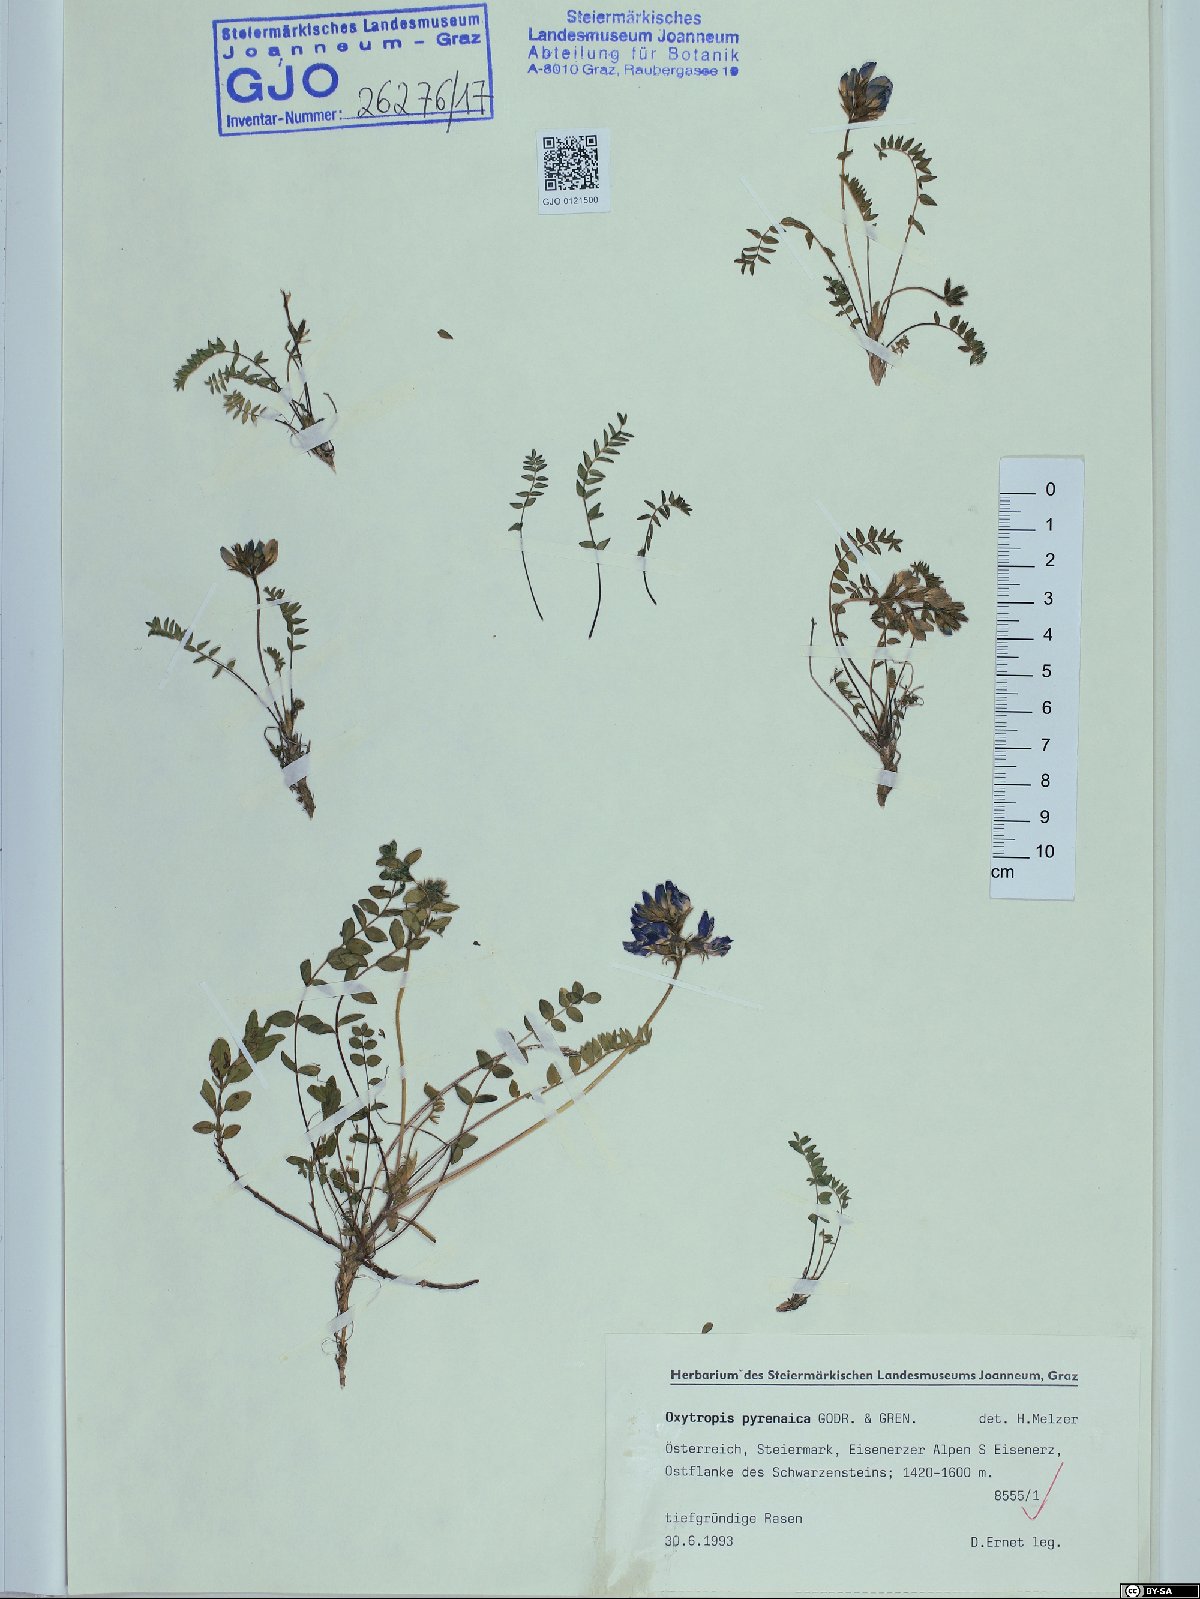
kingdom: Plantae
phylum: Tracheophyta
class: Magnoliopsida
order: Fabales
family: Fabaceae
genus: Oxytropis
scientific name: Oxytropis neglecta
